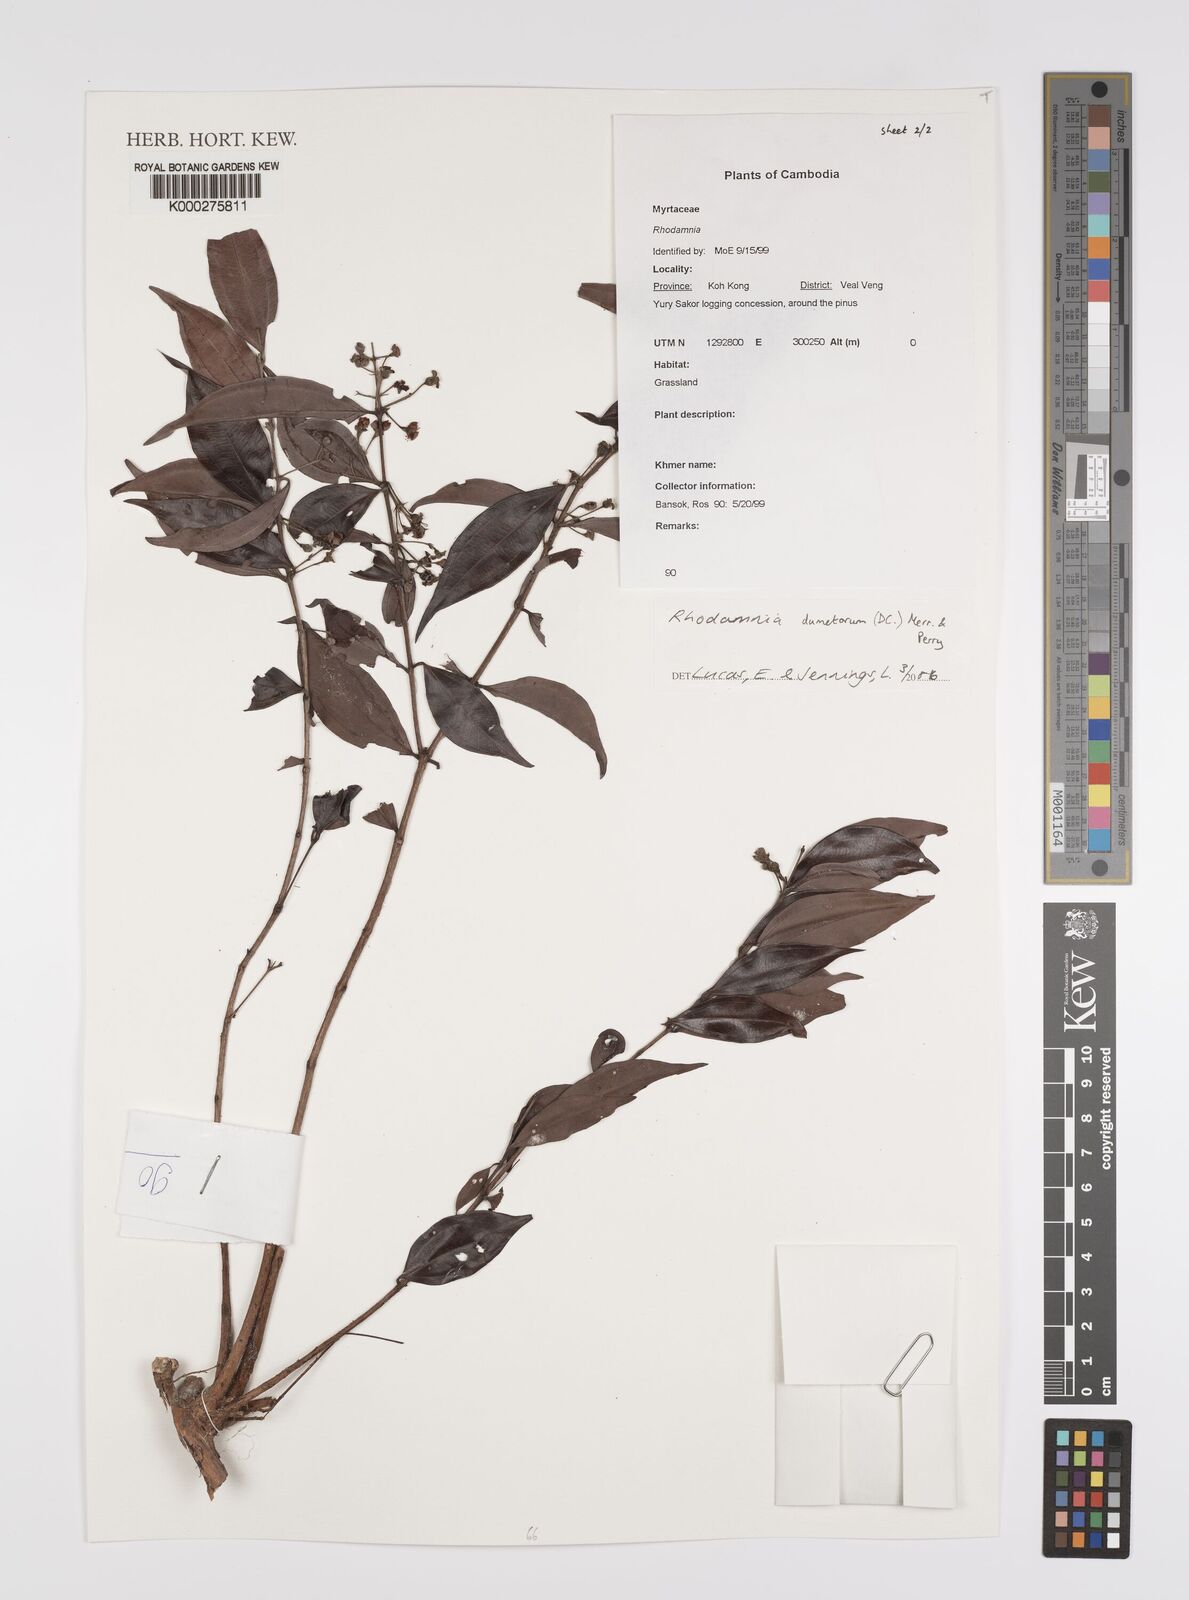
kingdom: Plantae
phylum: Tracheophyta
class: Magnoliopsida
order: Myrtales
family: Myrtaceae
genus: Rhodamnia
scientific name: Rhodamnia dumetorum
